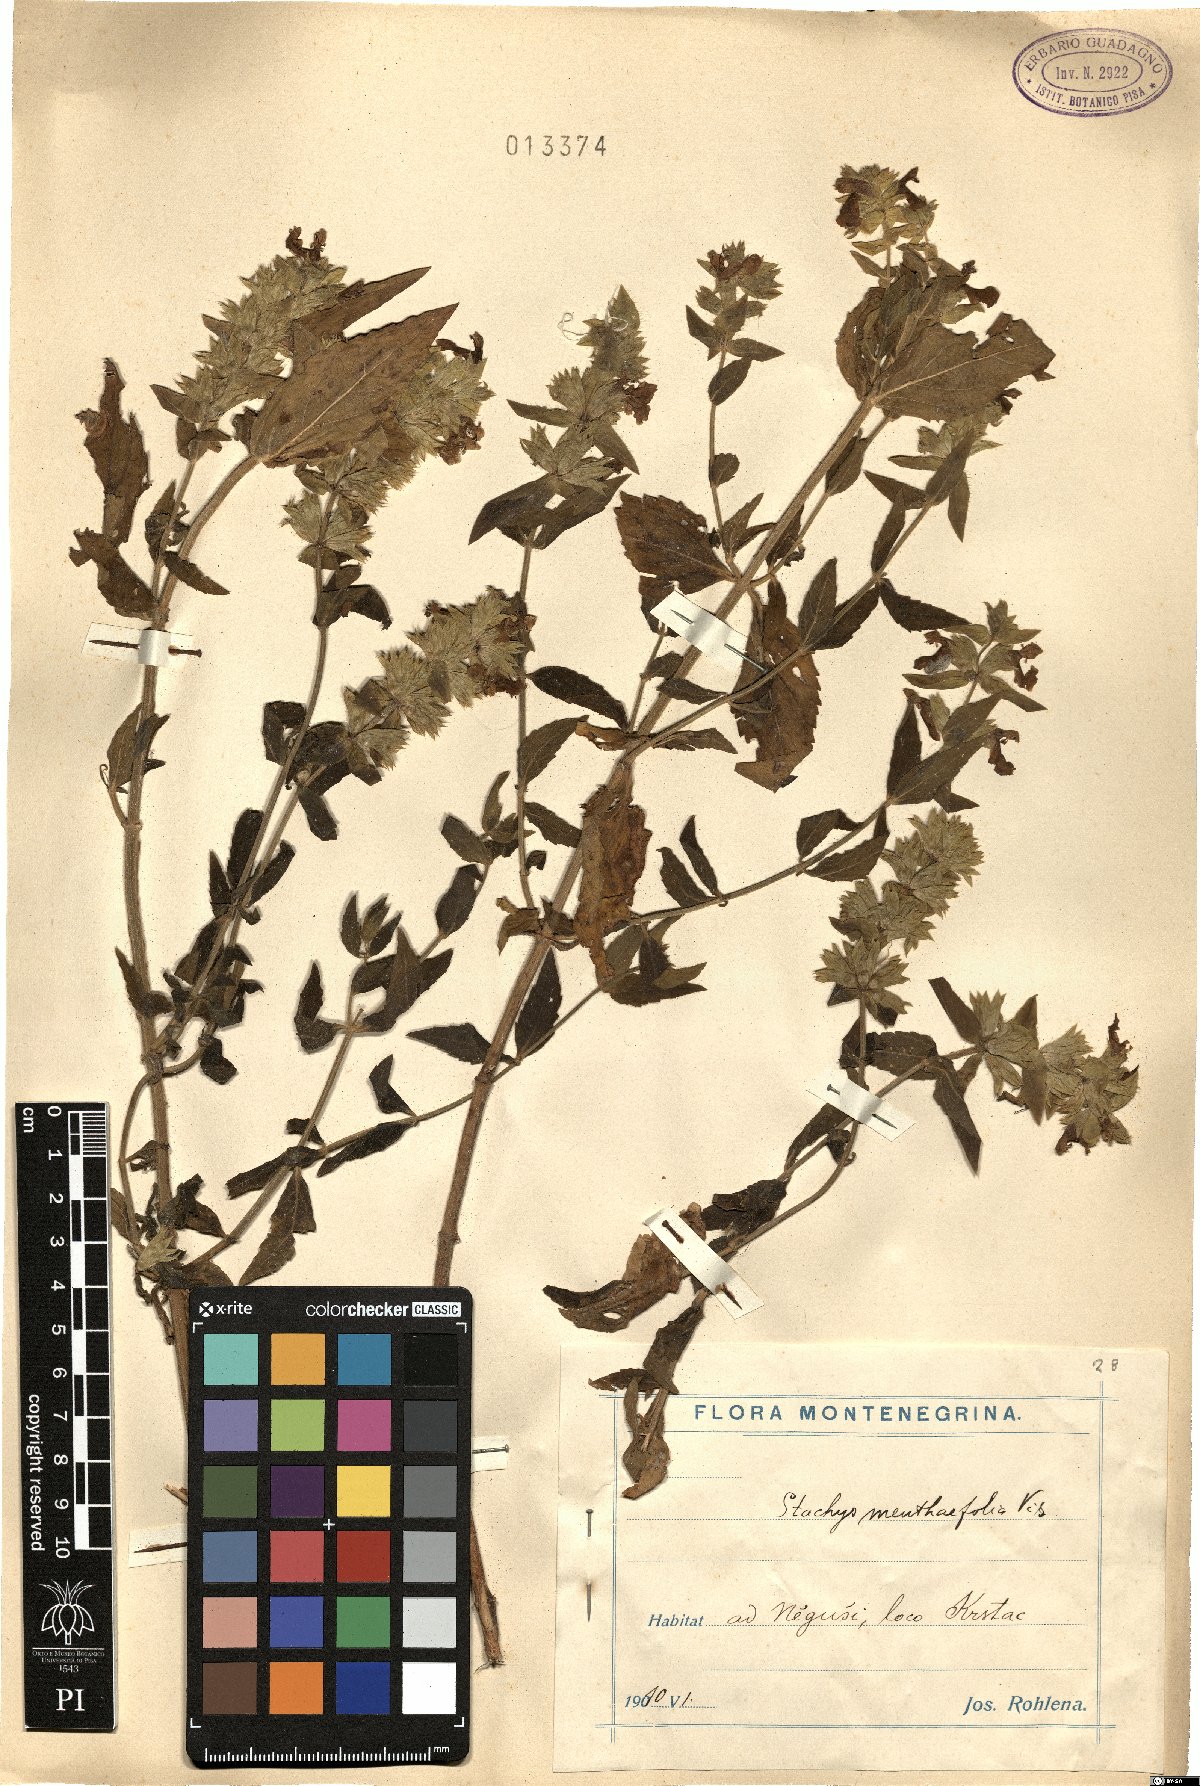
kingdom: Plantae
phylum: Tracheophyta
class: Magnoliopsida
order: Lamiales
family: Lamiaceae
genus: Stachys
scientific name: Stachys menthifolia
